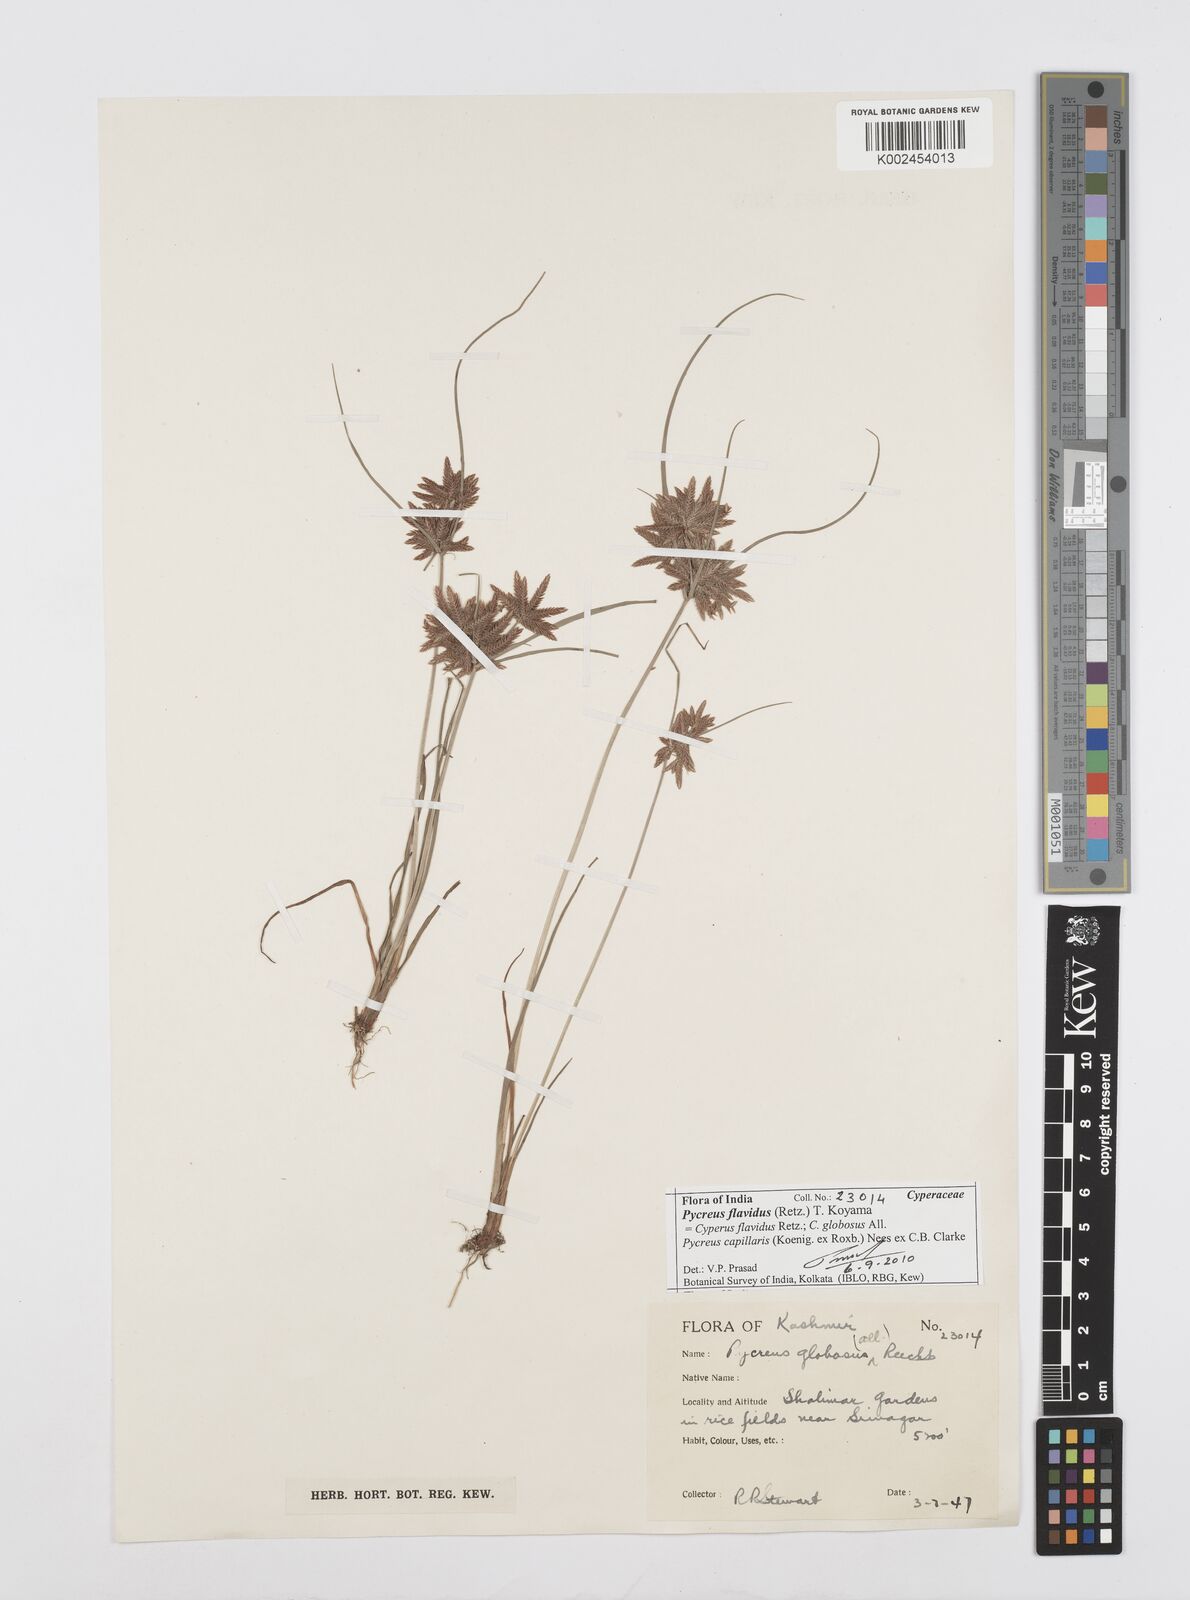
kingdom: Plantae
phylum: Tracheophyta
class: Liliopsida
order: Poales
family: Cyperaceae
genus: Cyperus
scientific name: Cyperus flavidus
